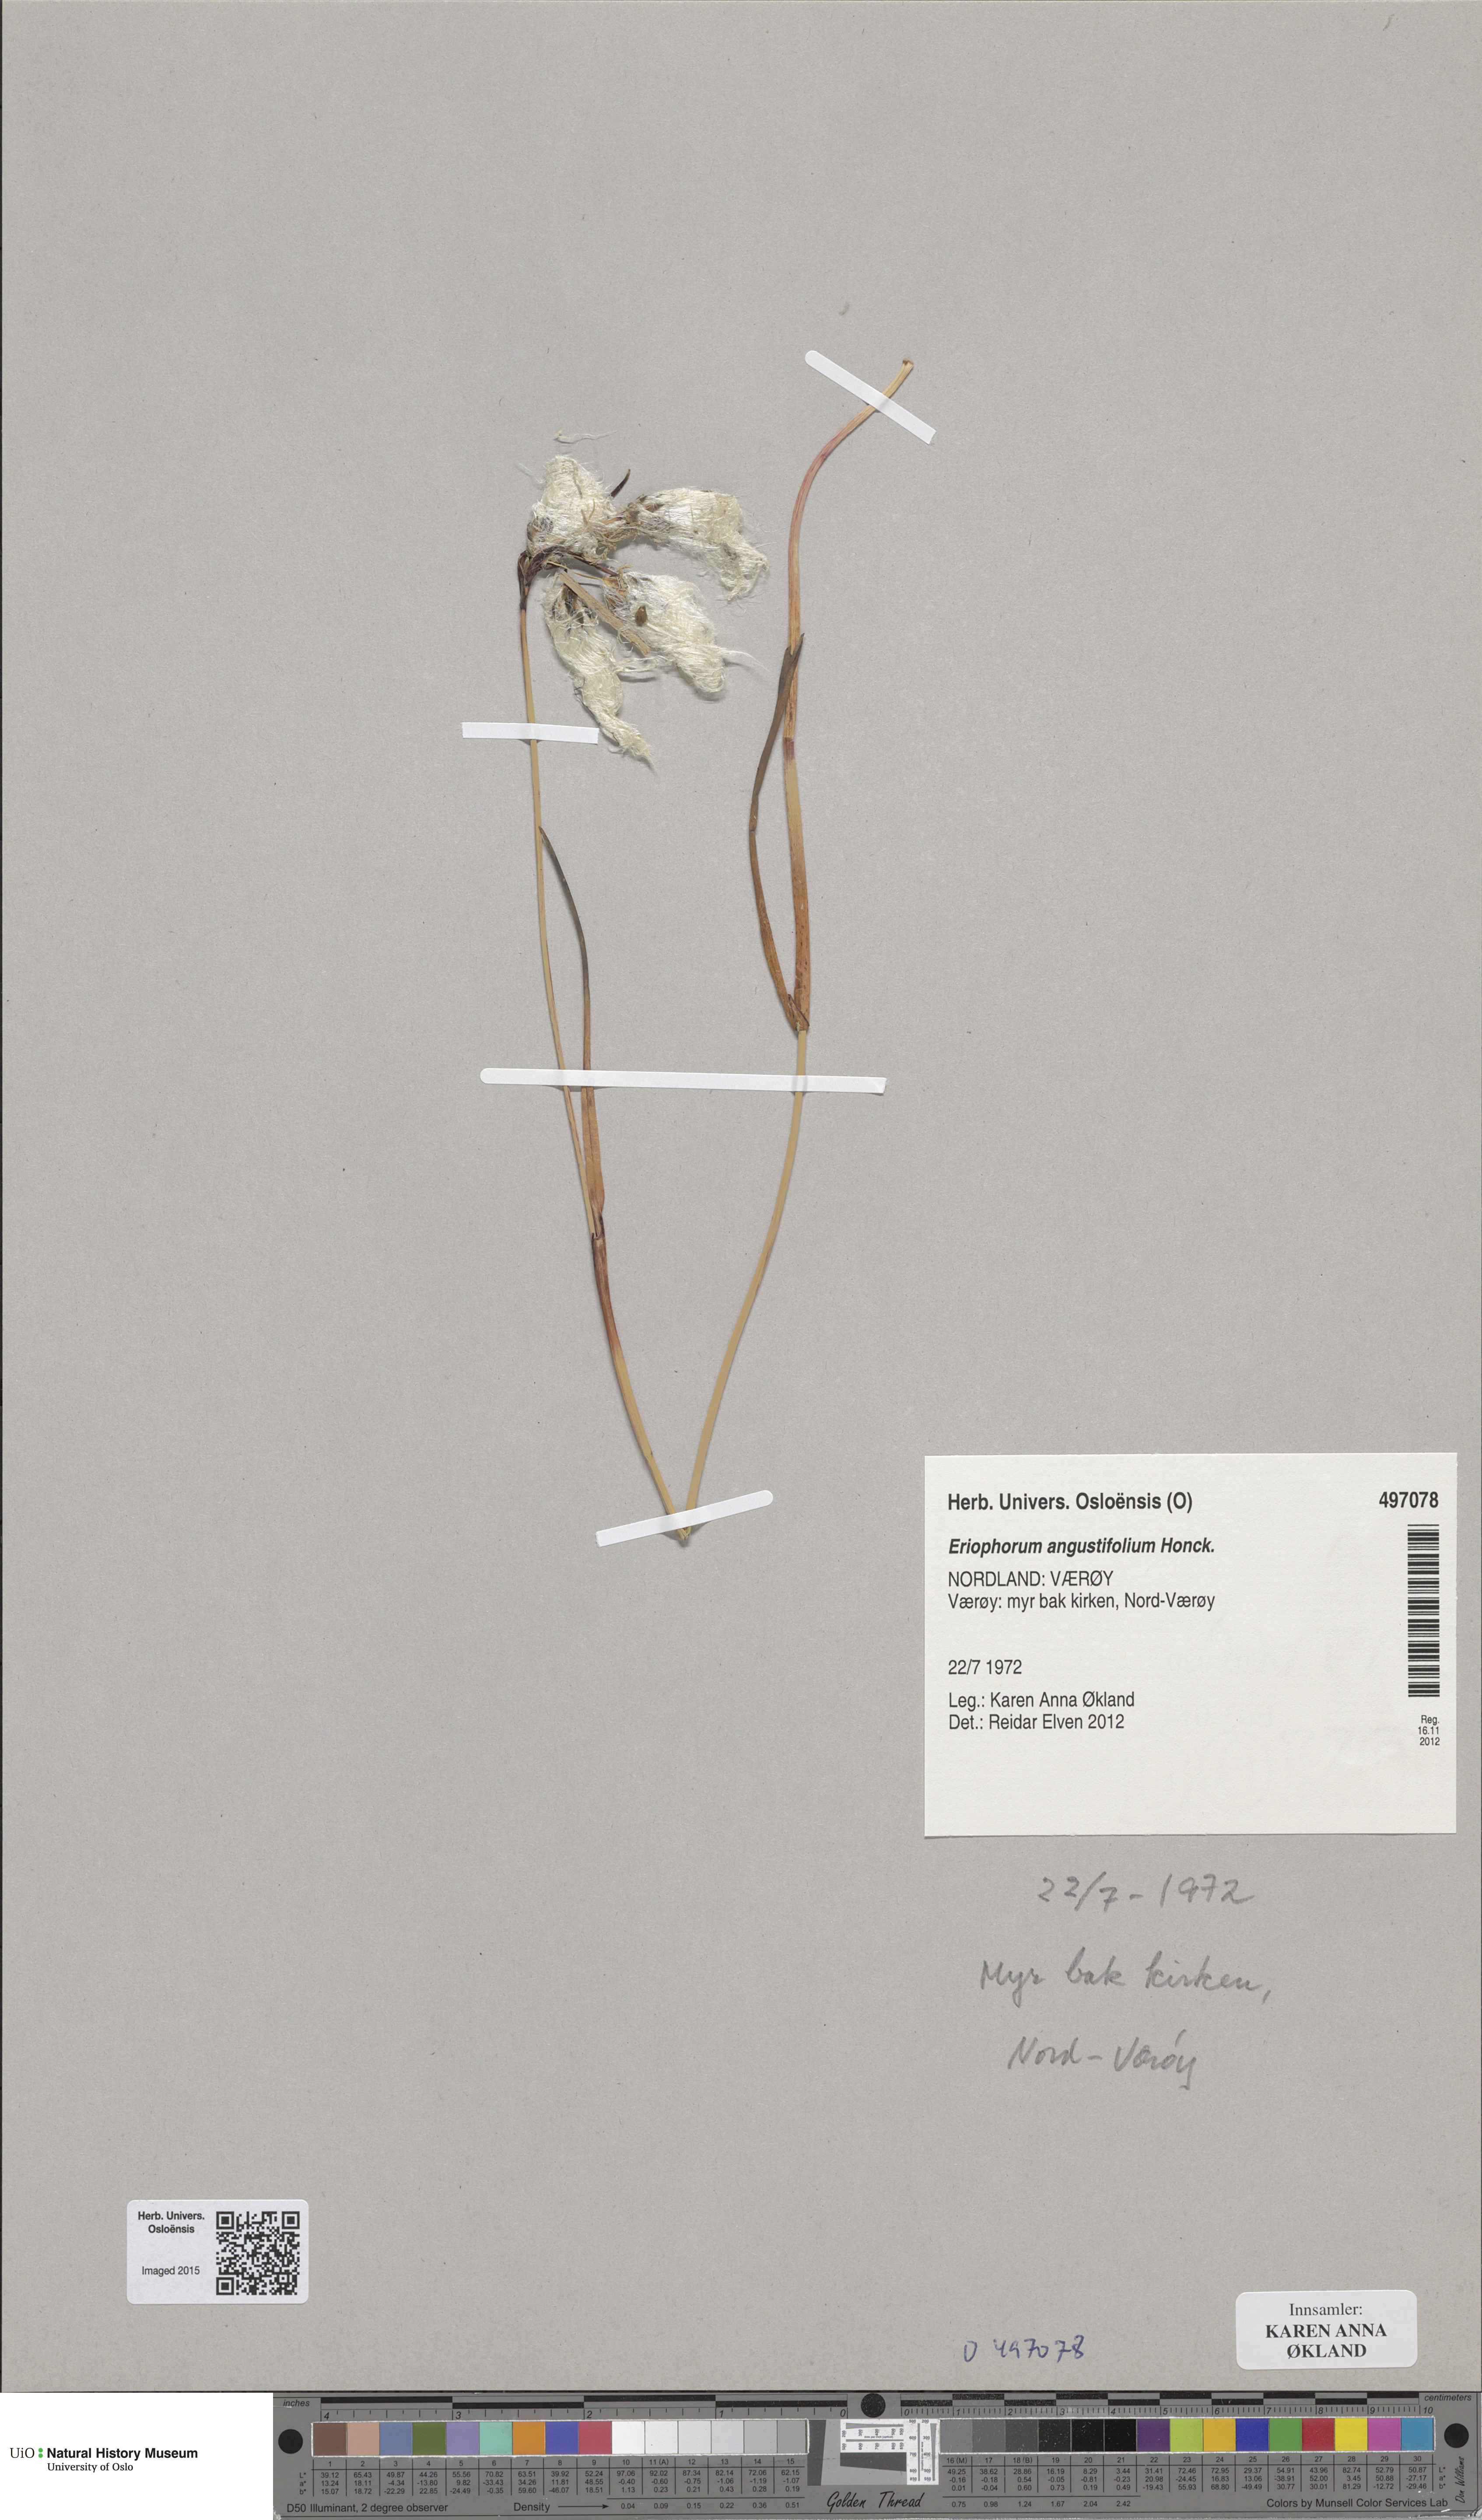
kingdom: Plantae
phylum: Tracheophyta
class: Liliopsida
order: Poales
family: Cyperaceae
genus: Eriophorum
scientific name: Eriophorum angustifolium
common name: Common cottongrass
